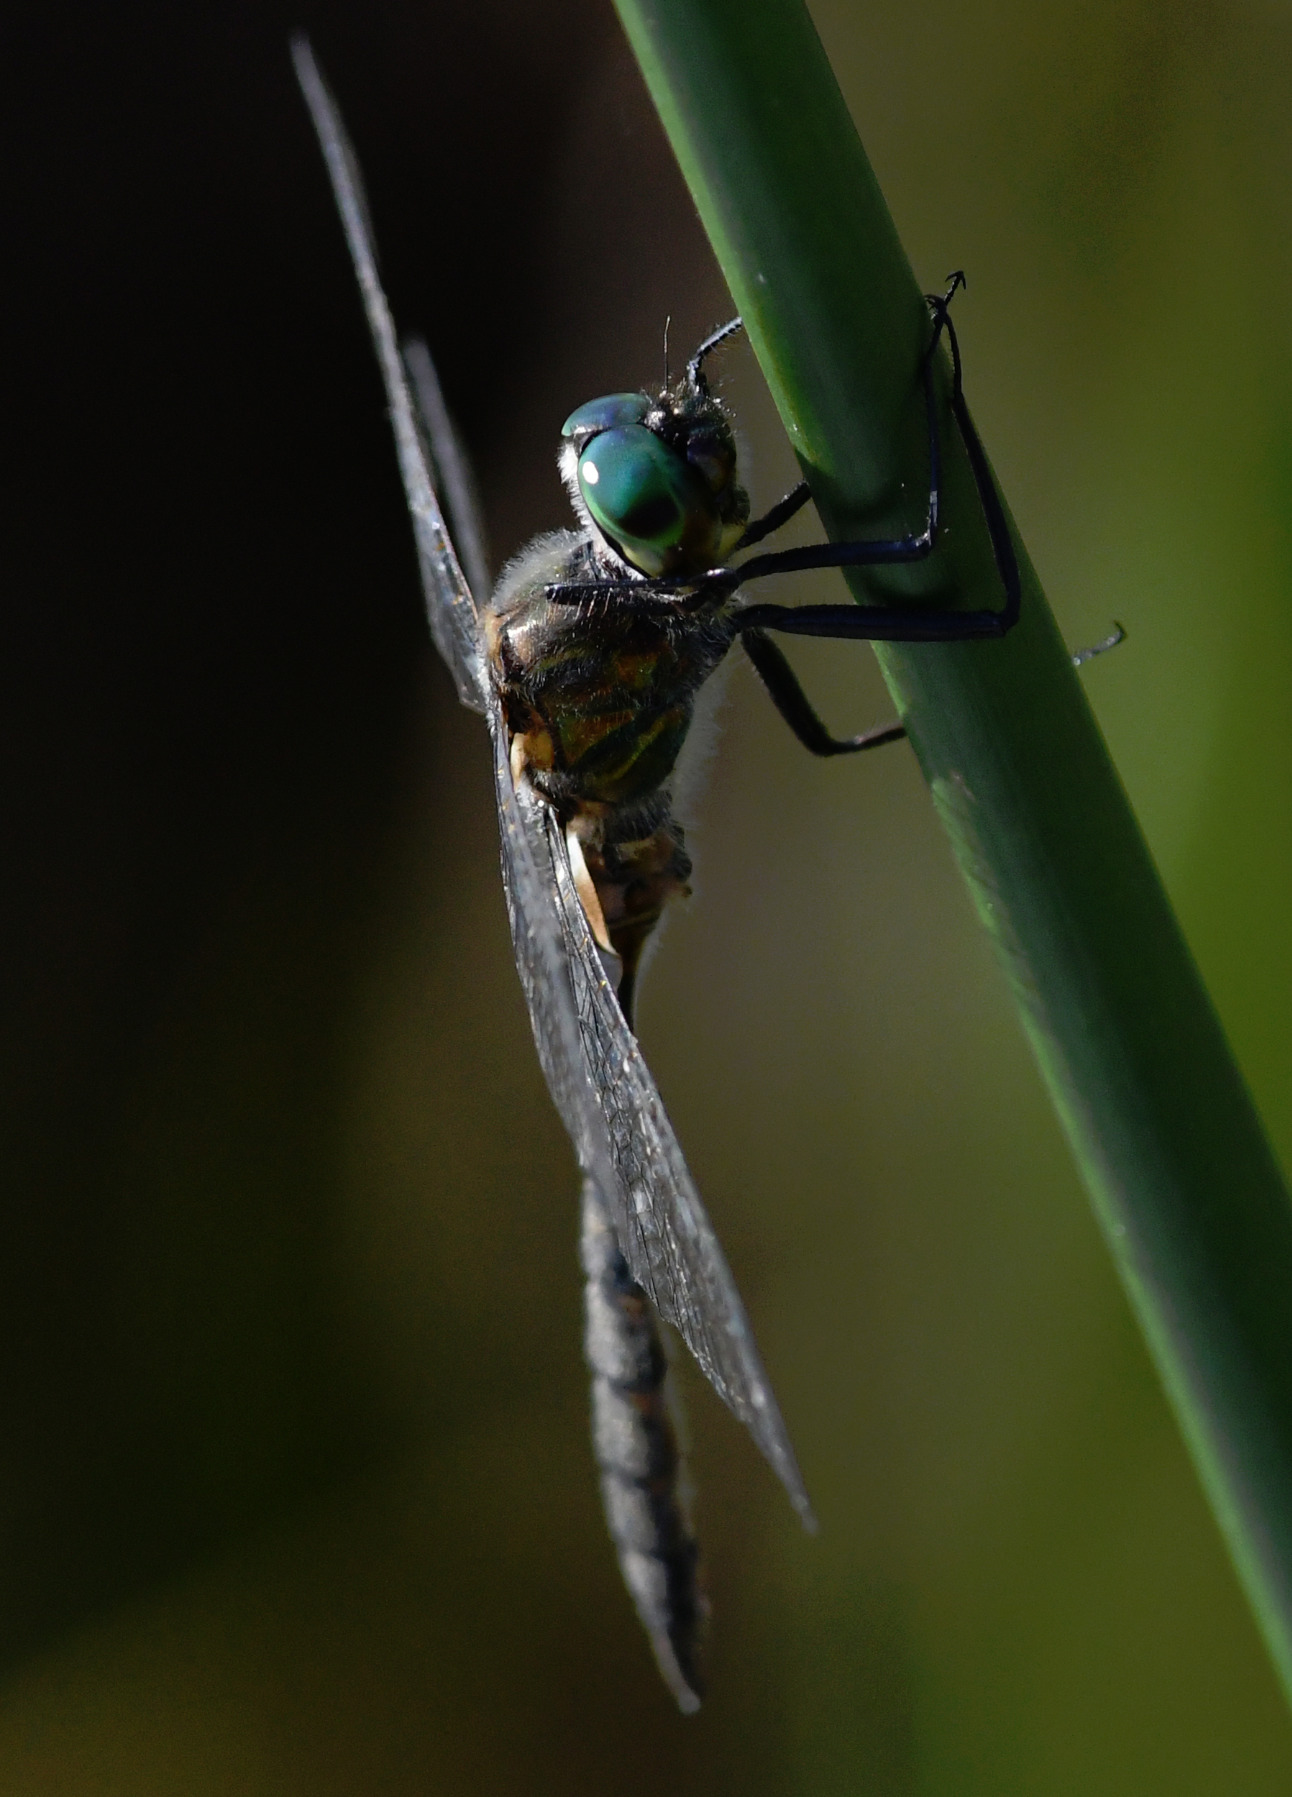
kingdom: Animalia
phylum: Arthropoda
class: Insecta
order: Odonata
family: Corduliidae
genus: Somatochlora
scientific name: Somatochlora flavomaculata
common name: Plettet smaragdlibel
